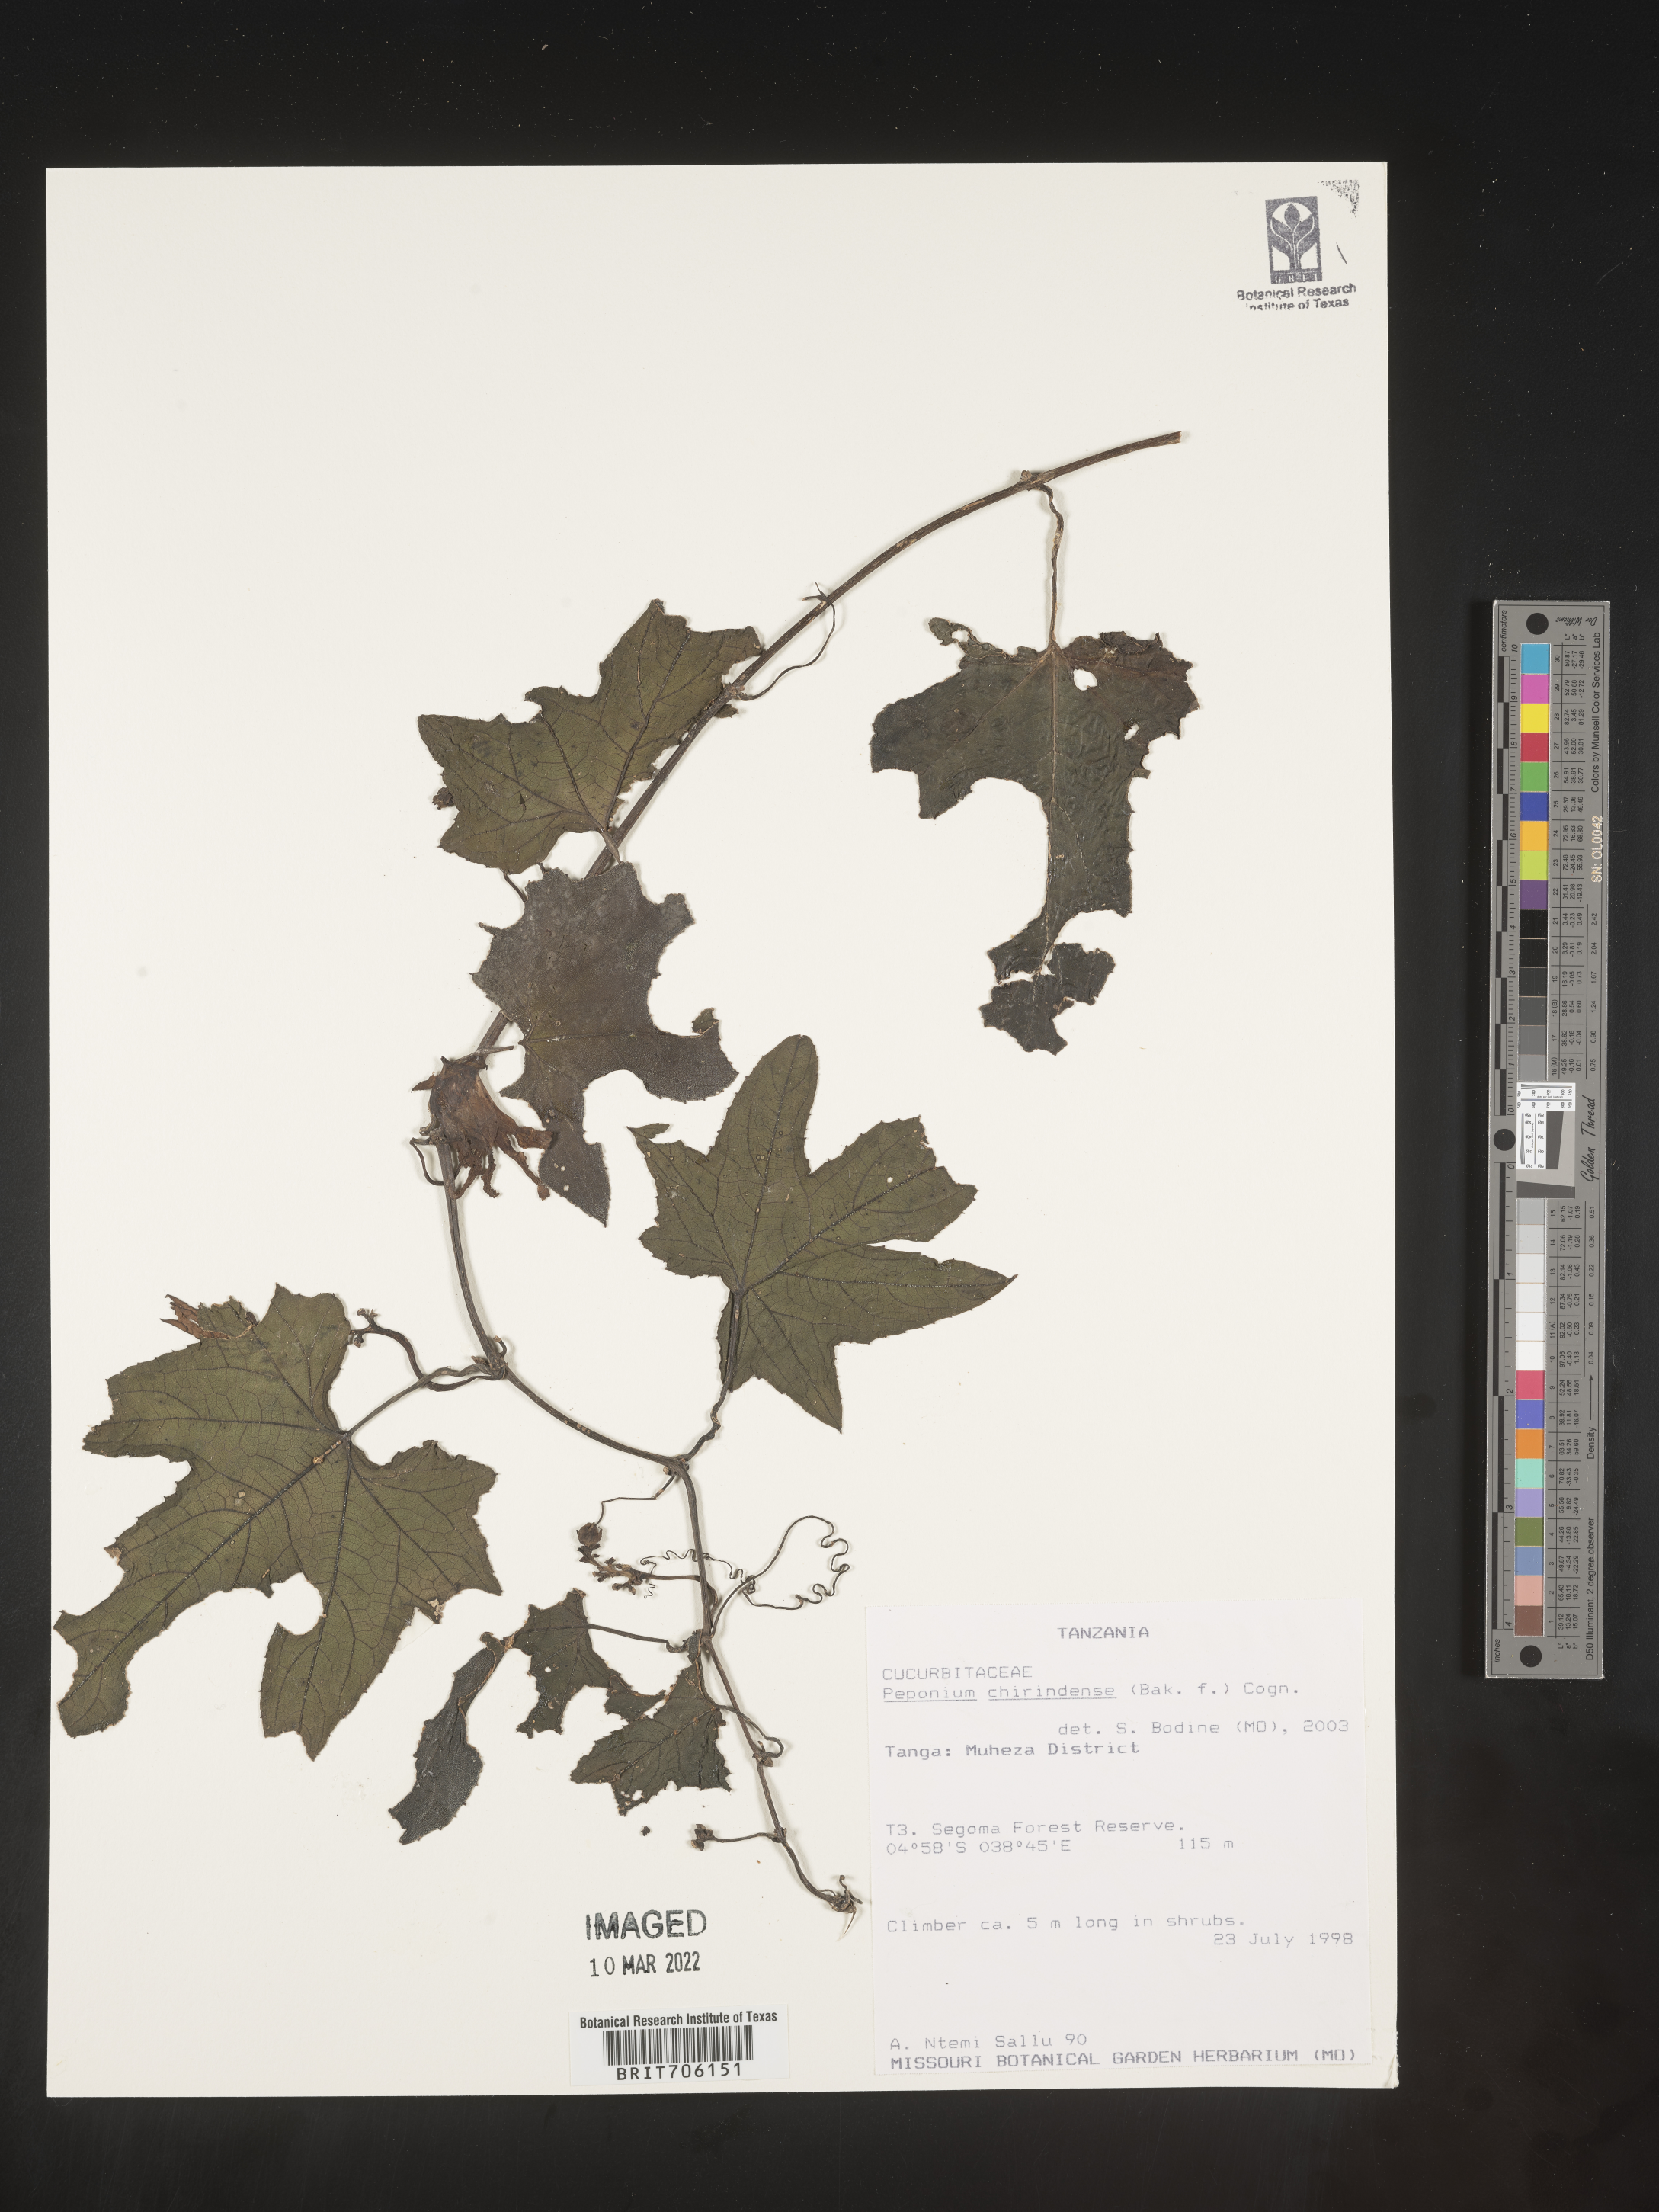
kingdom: Plantae
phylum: Tracheophyta
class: Magnoliopsida
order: Cucurbitales
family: Cucurbitaceae
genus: Peponium
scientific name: Peponium
